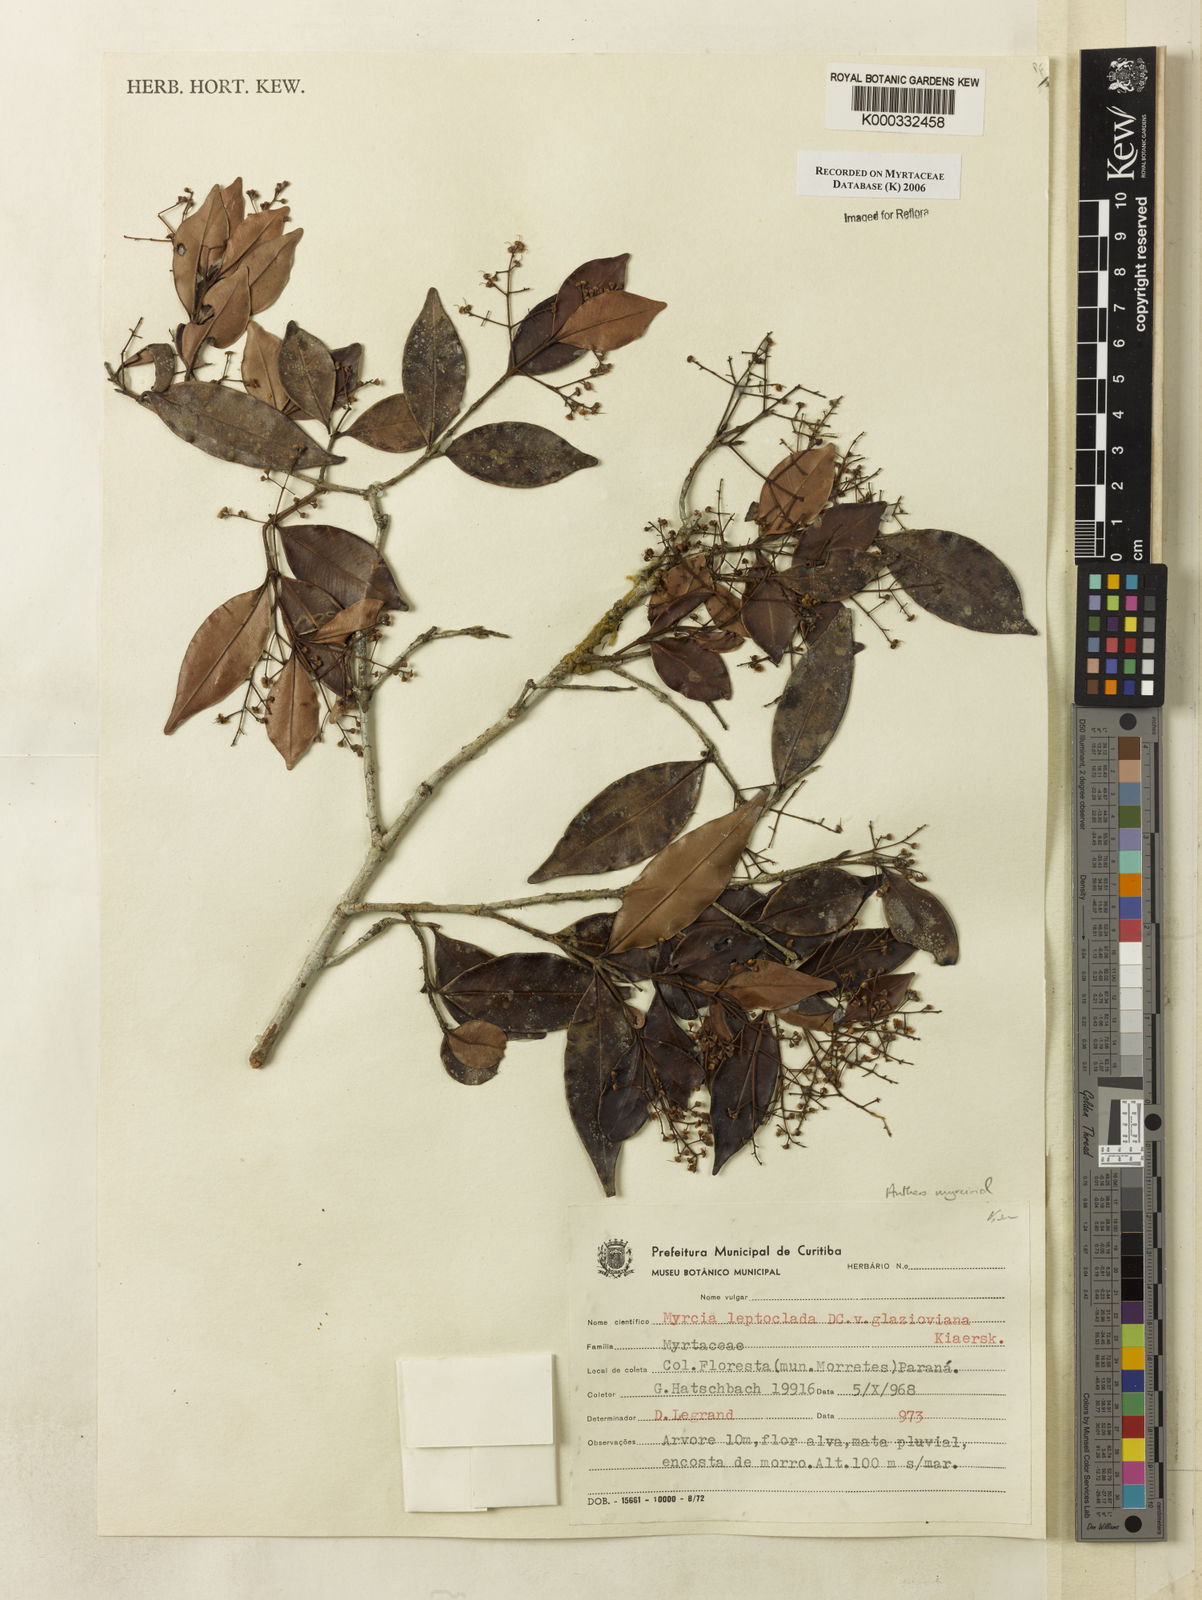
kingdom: Plantae
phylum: Tracheophyta
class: Magnoliopsida
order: Myrtales
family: Myrtaceae
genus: Myrcia
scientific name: Myrcia amazonica
